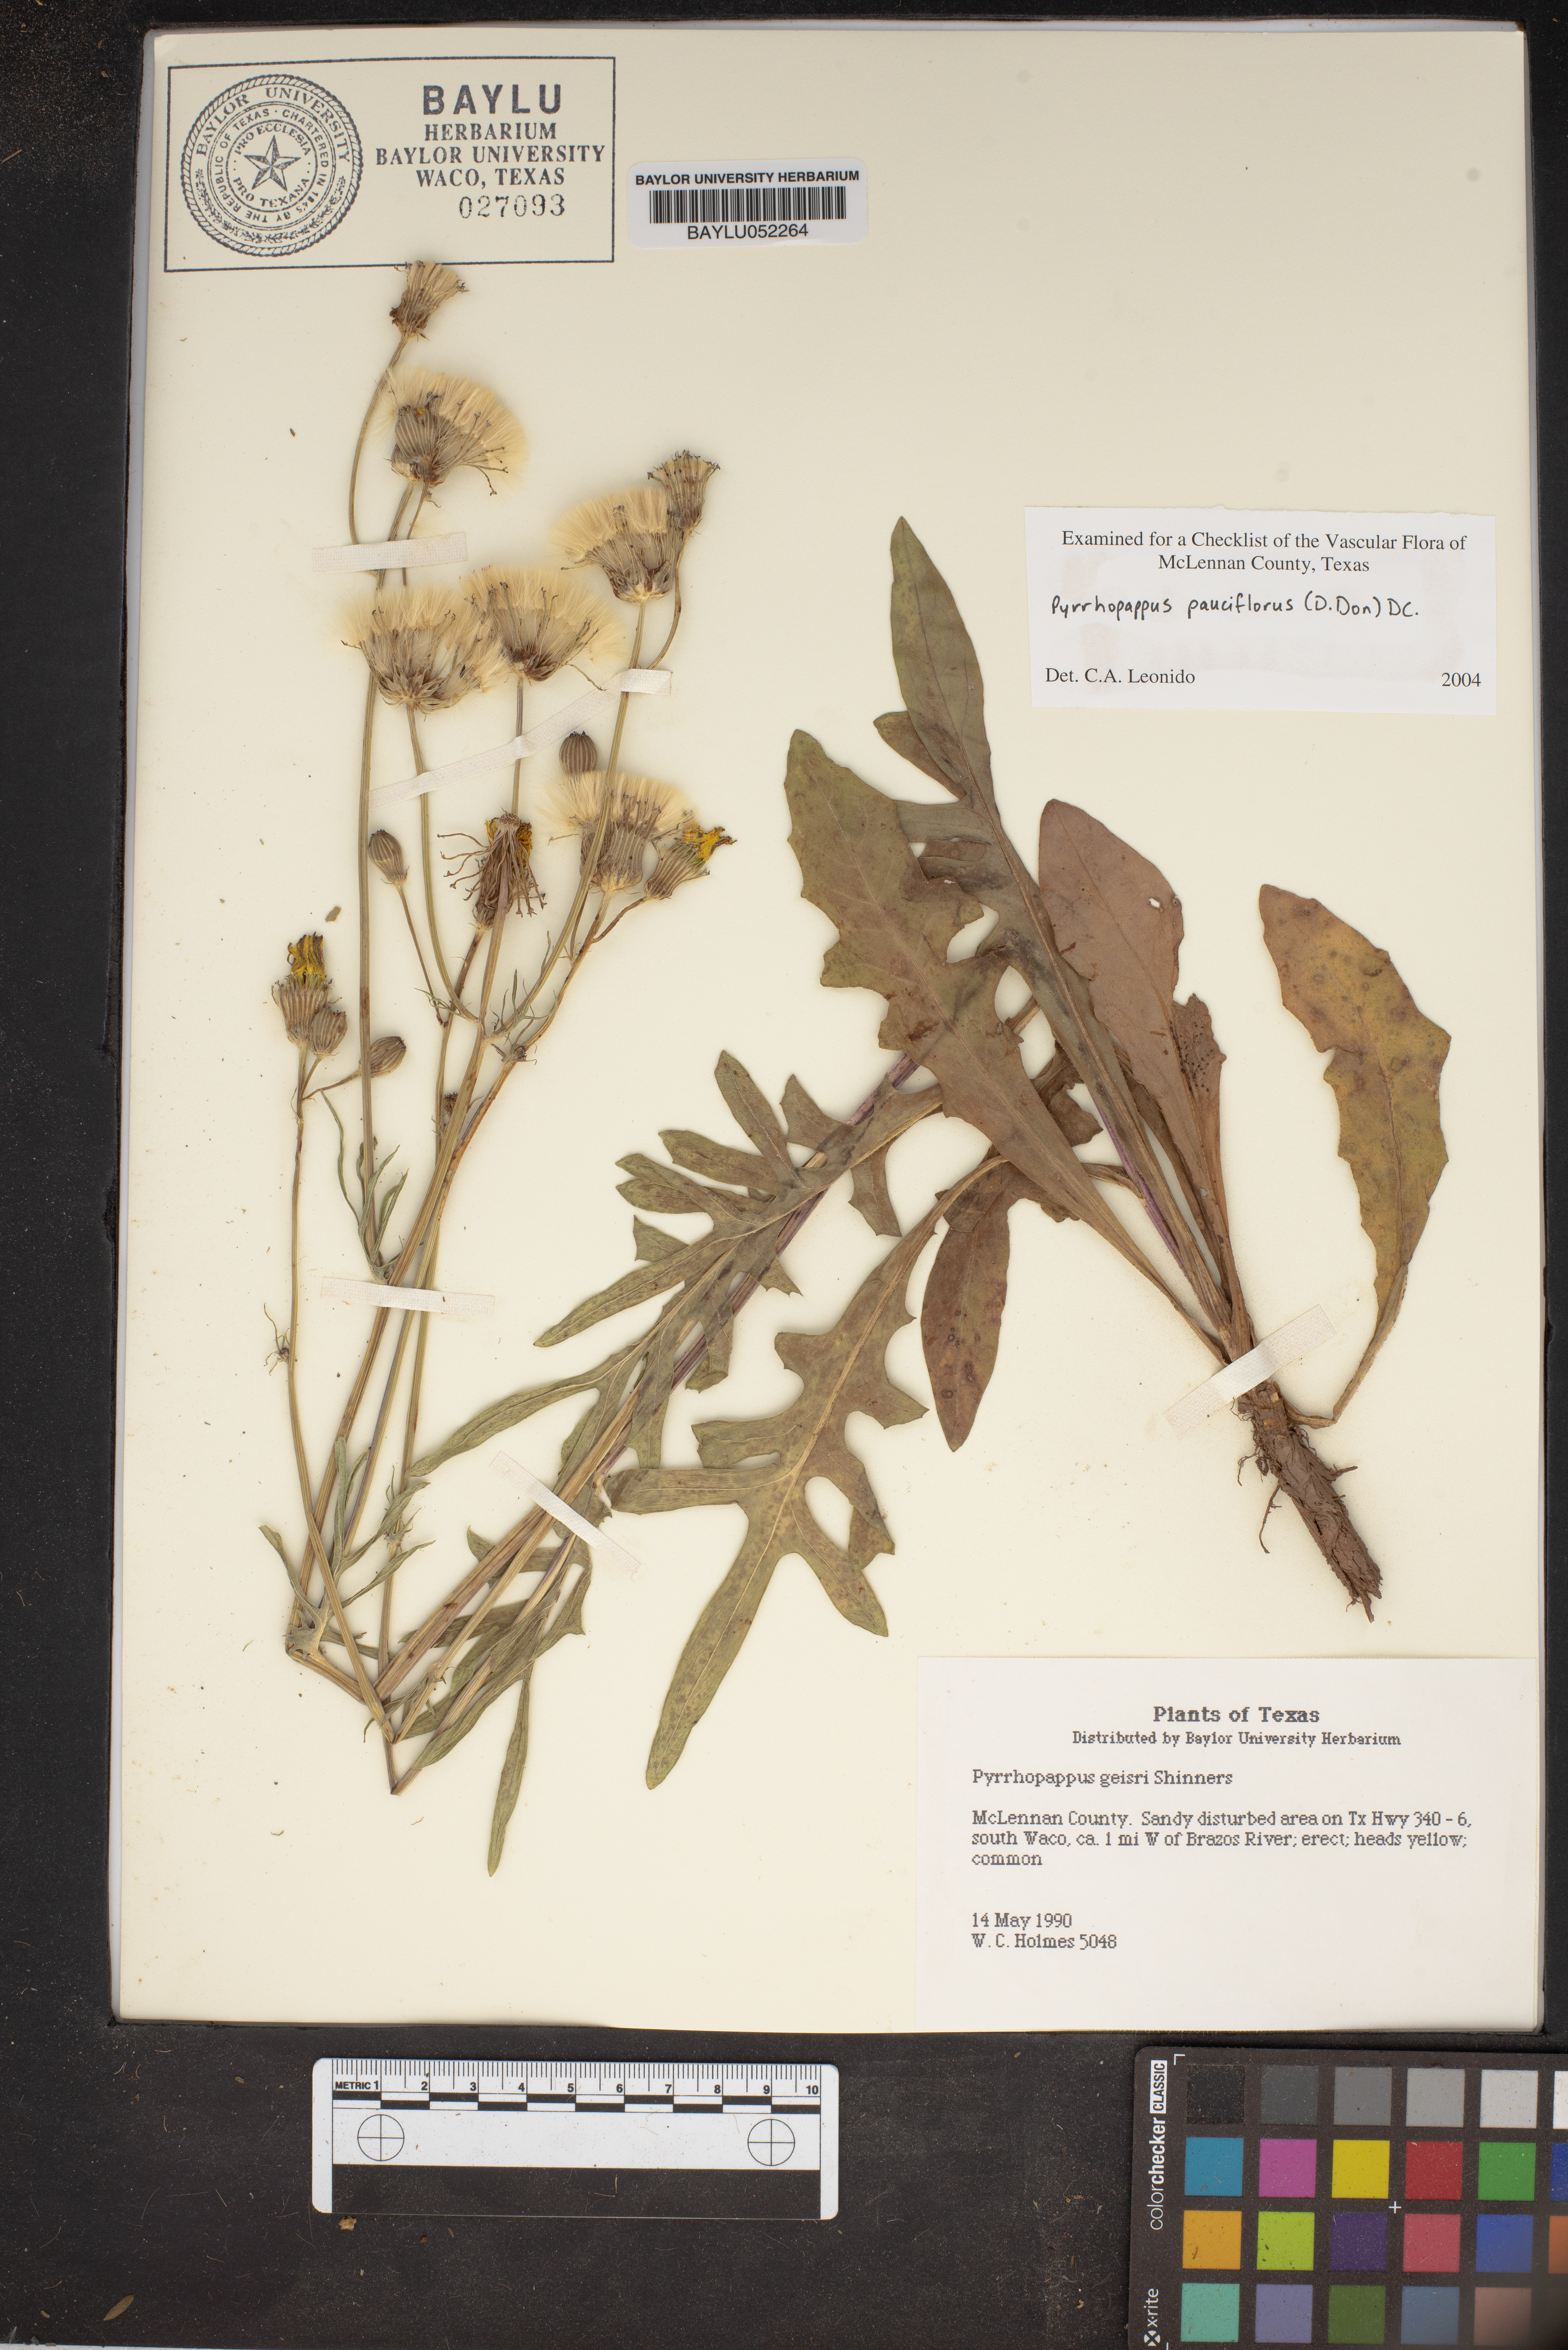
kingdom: Plantae
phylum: Tracheophyta
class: Magnoliopsida
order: Asterales
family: Asteraceae
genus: Pyrrhopappus
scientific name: Pyrrhopappus pauciflorus
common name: Texas false dandelion
